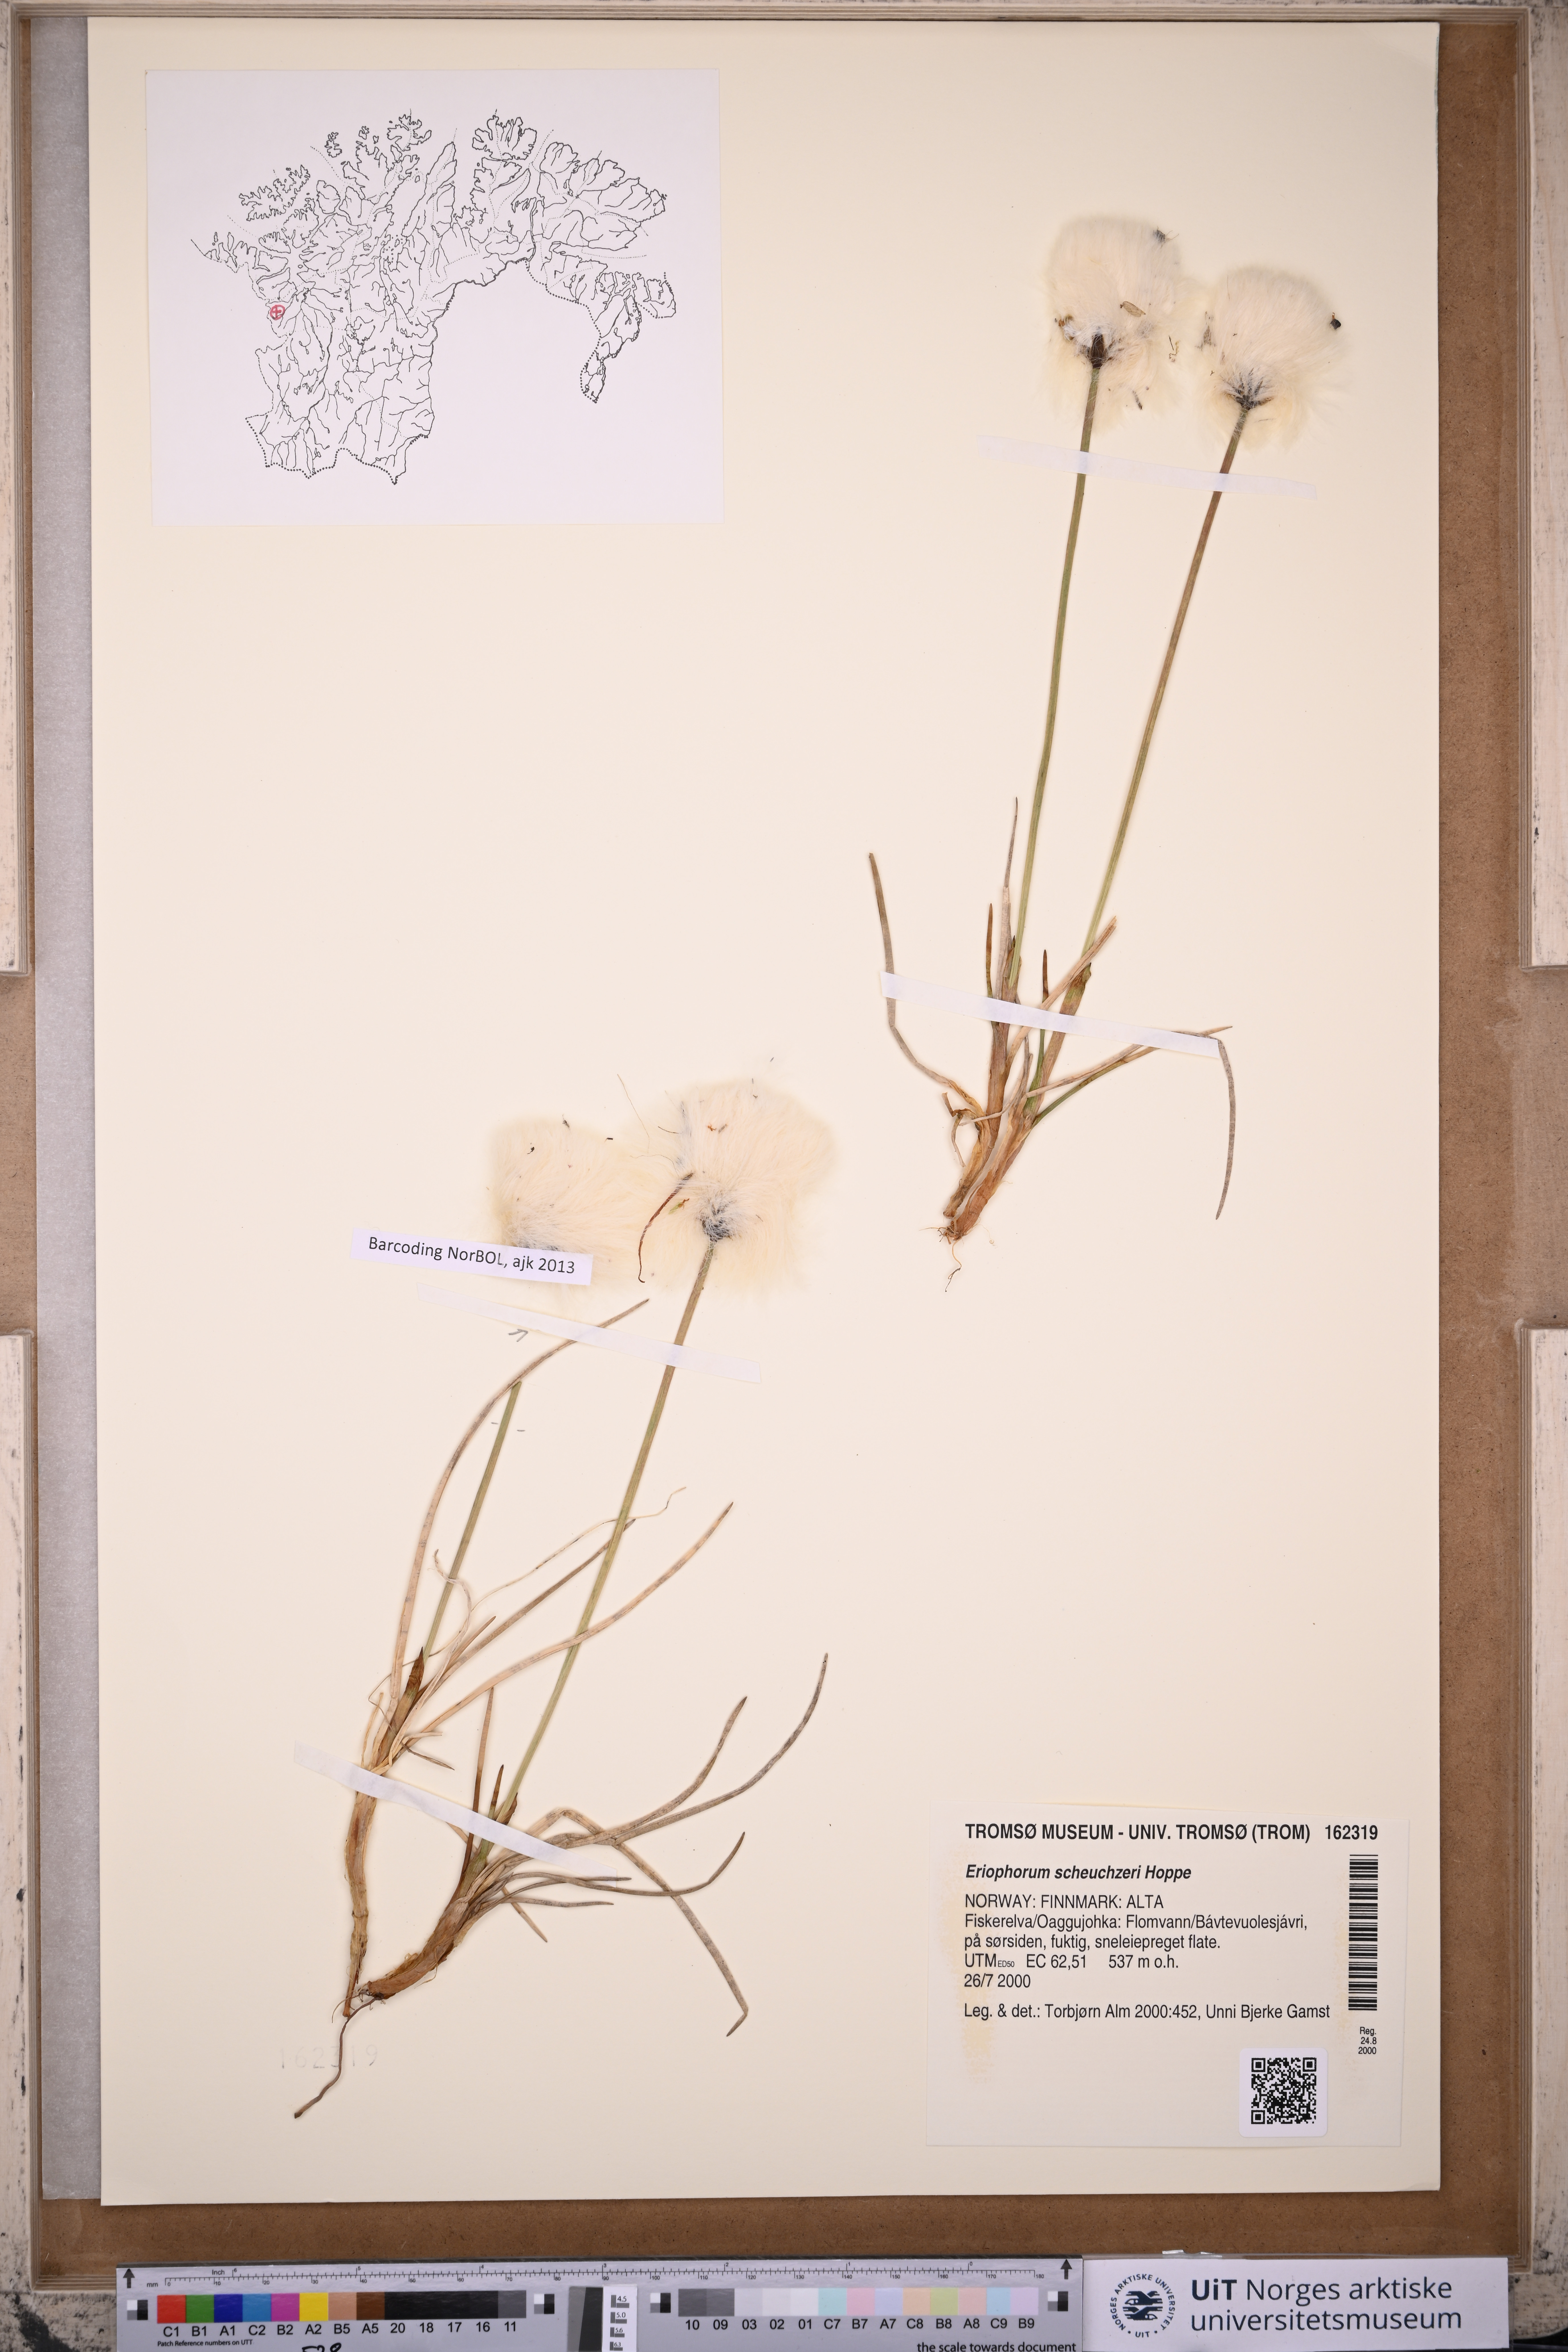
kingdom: Plantae
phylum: Tracheophyta
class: Liliopsida
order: Poales
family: Cyperaceae
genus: Eriophorum
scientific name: Eriophorum scheuchzeri
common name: Scheuchzer's cottongrass
